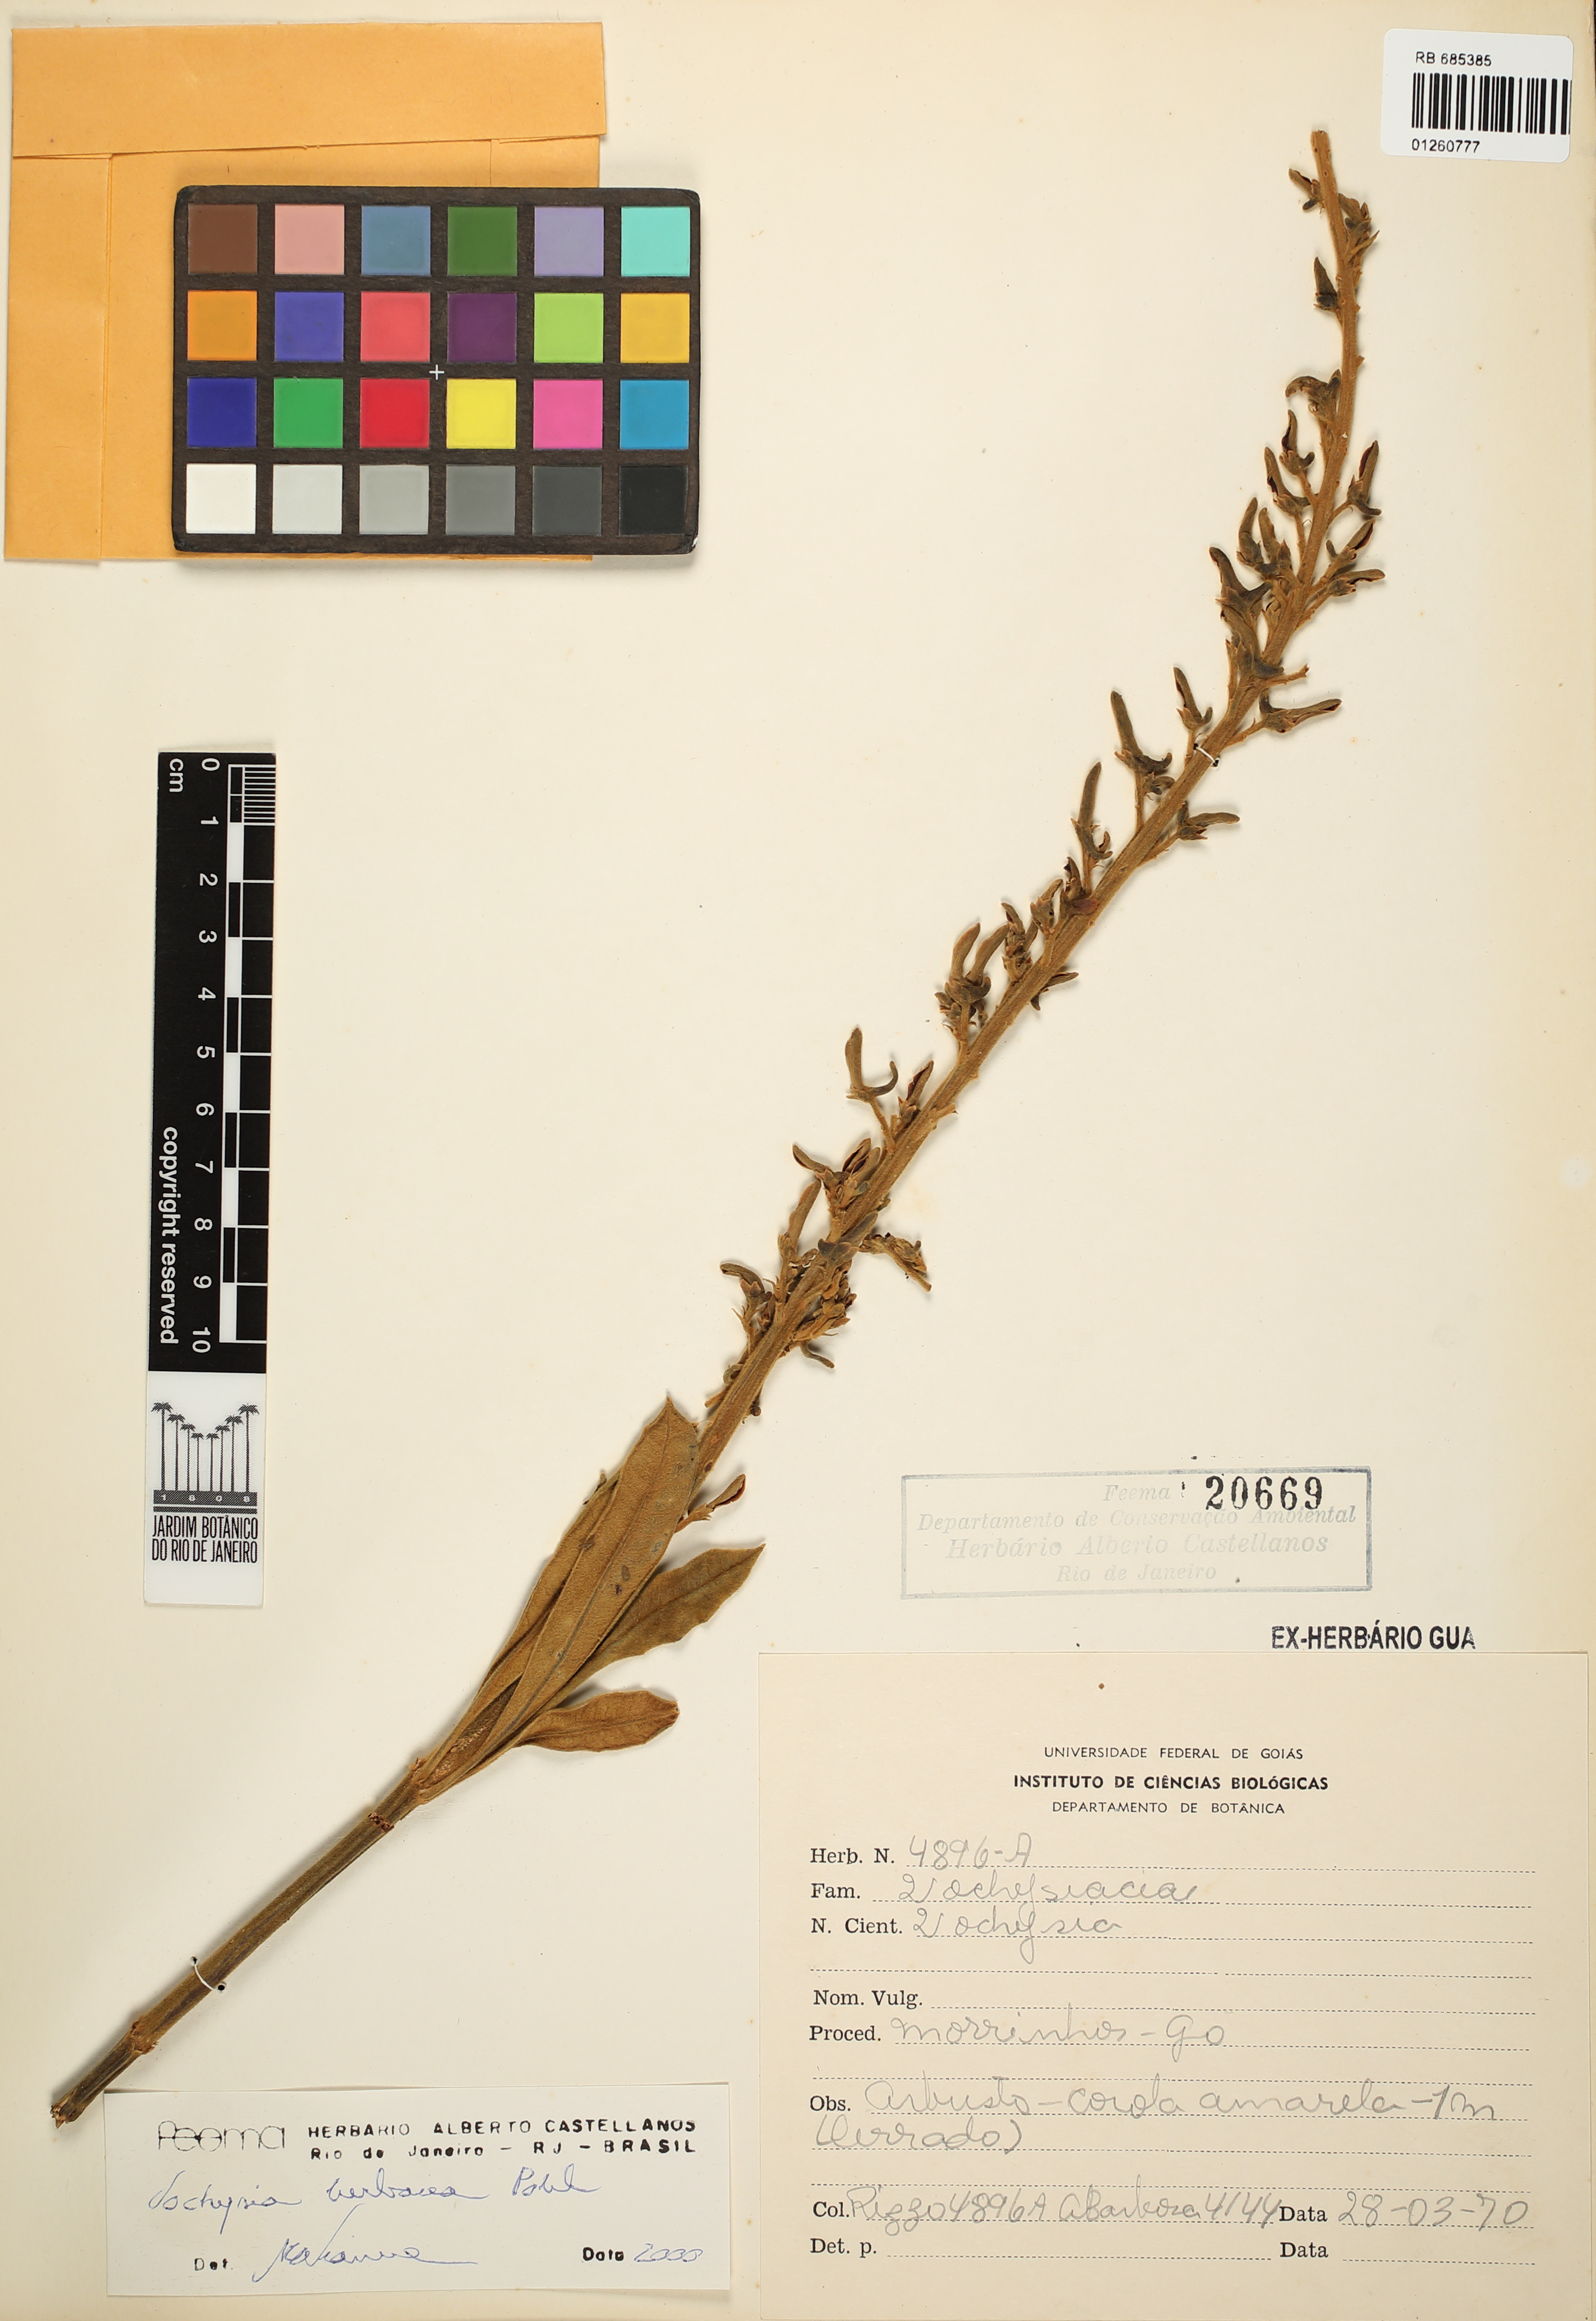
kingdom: Plantae
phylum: Tracheophyta
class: Magnoliopsida
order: Myrtales
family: Vochysiaceae
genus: Vochysia
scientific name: Vochysia herbacea
